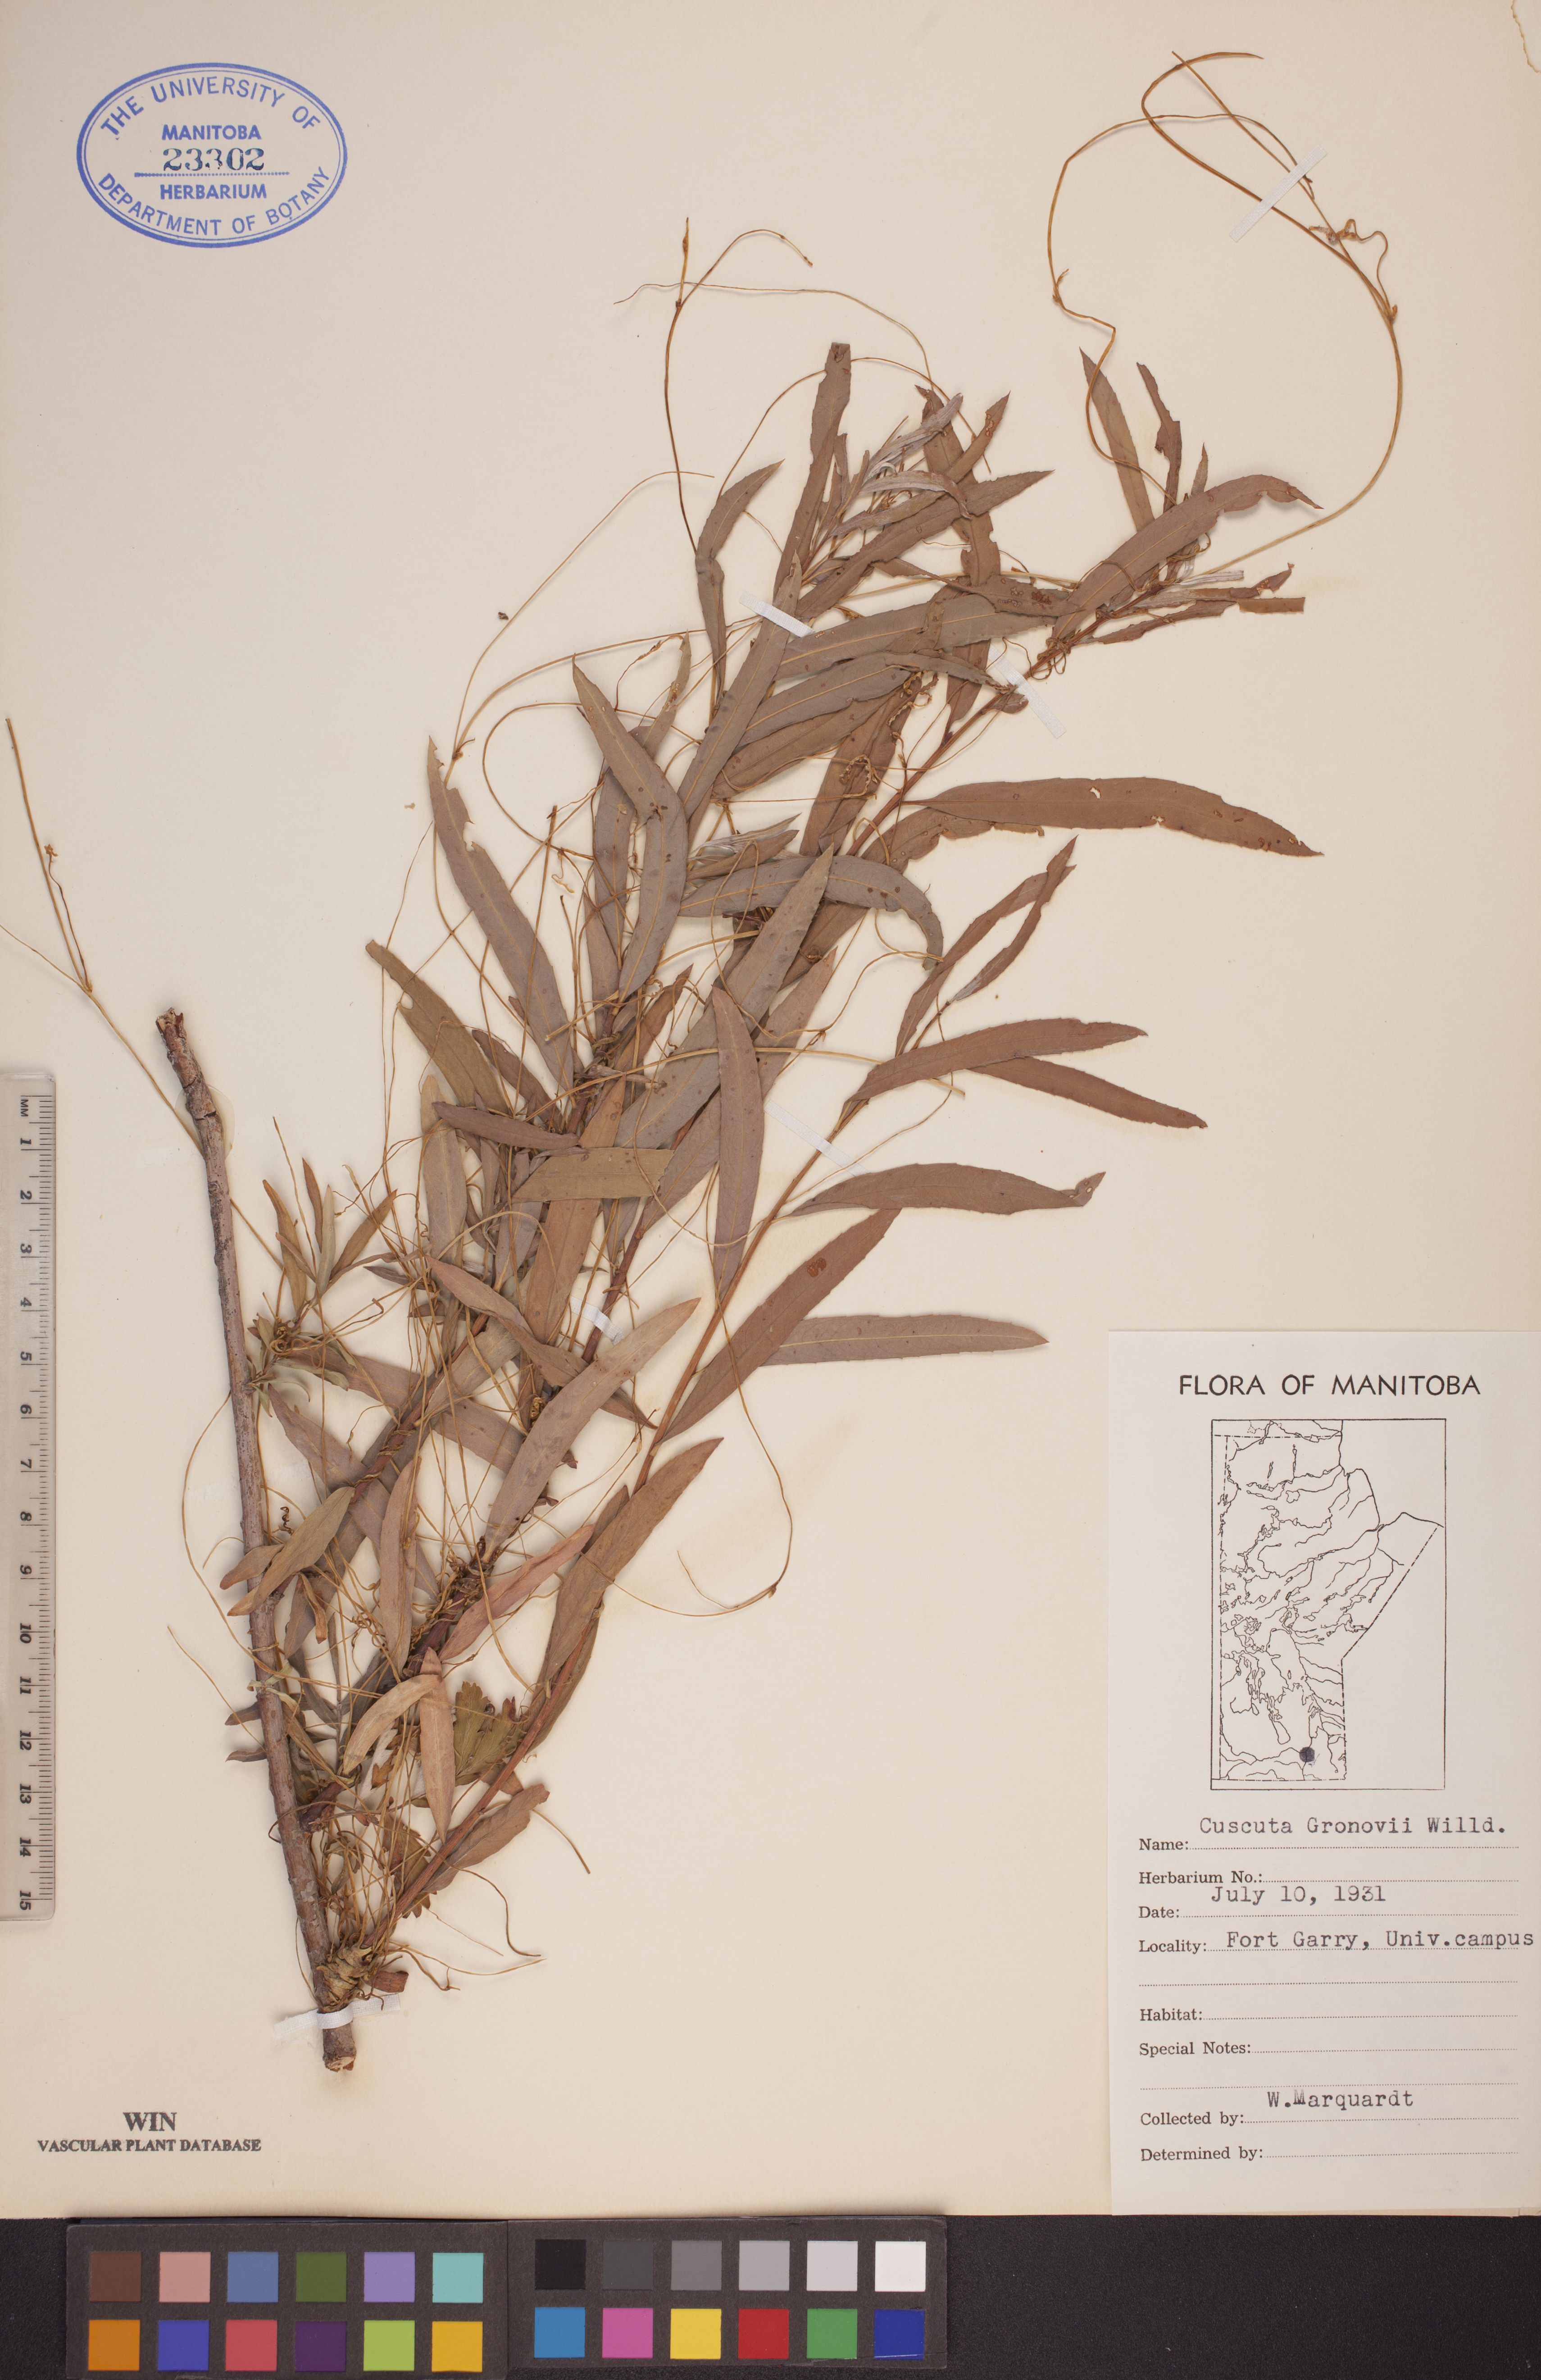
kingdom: Plantae
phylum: Tracheophyta
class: Magnoliopsida
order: Solanales
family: Convolvulaceae
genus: Cuscuta
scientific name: Cuscuta gronovii
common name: Common dodder
